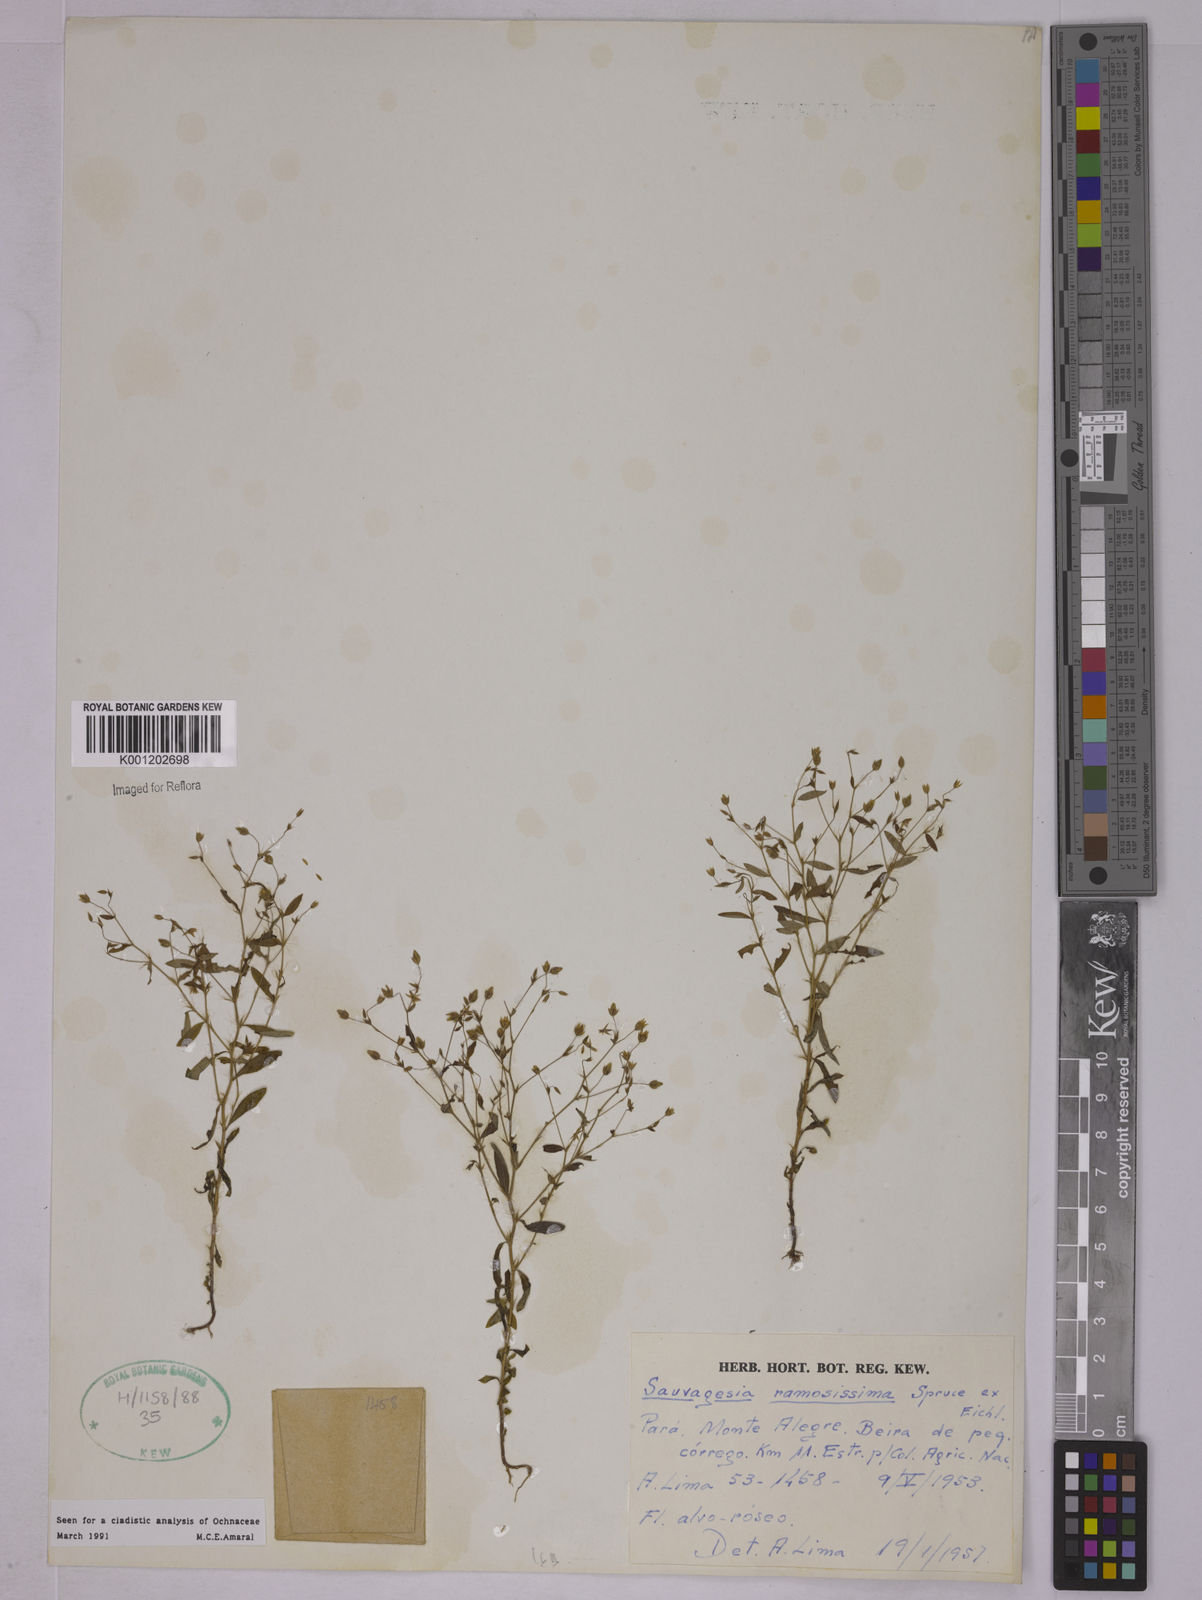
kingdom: Plantae
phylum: Tracheophyta
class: Magnoliopsida
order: Malpighiales
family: Ochnaceae
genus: Sauvagesia
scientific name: Sauvagesia ramosissima
